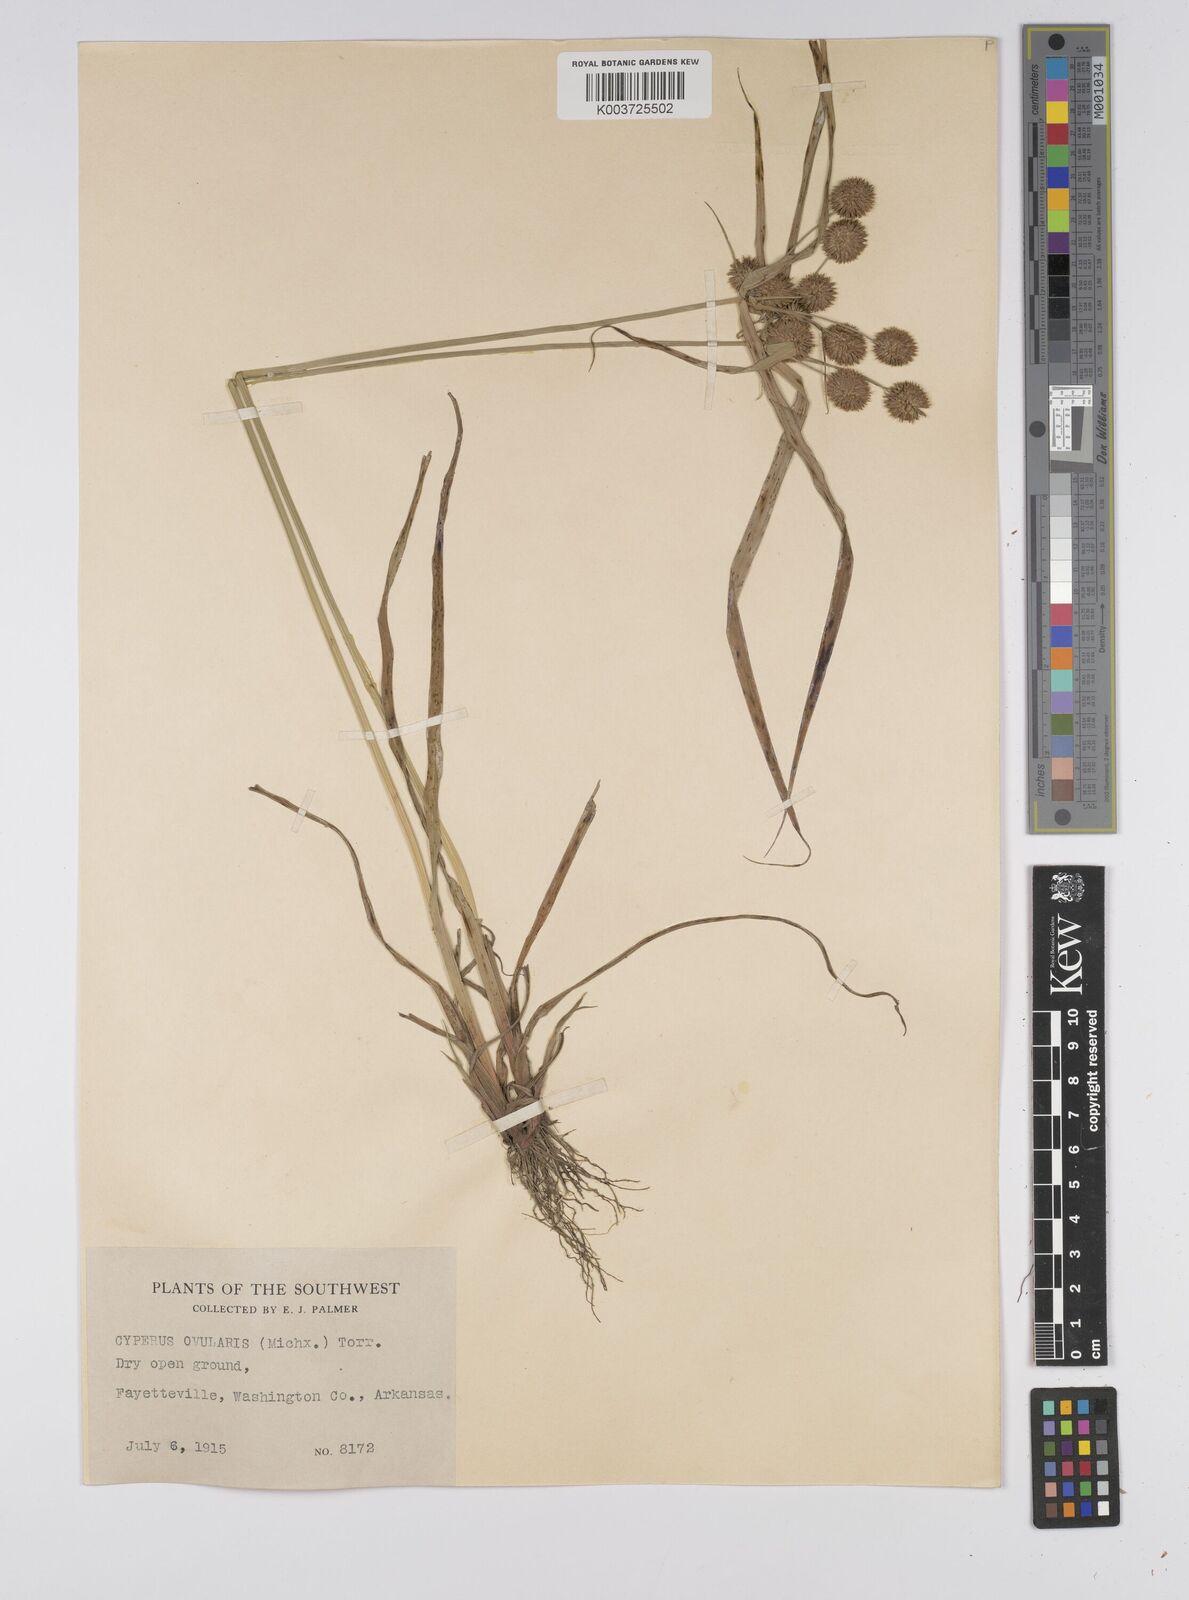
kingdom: Plantae
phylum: Tracheophyta
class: Liliopsida
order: Poales
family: Cyperaceae
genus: Cyperus
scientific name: Cyperus echinatus
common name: Teasel sedge
